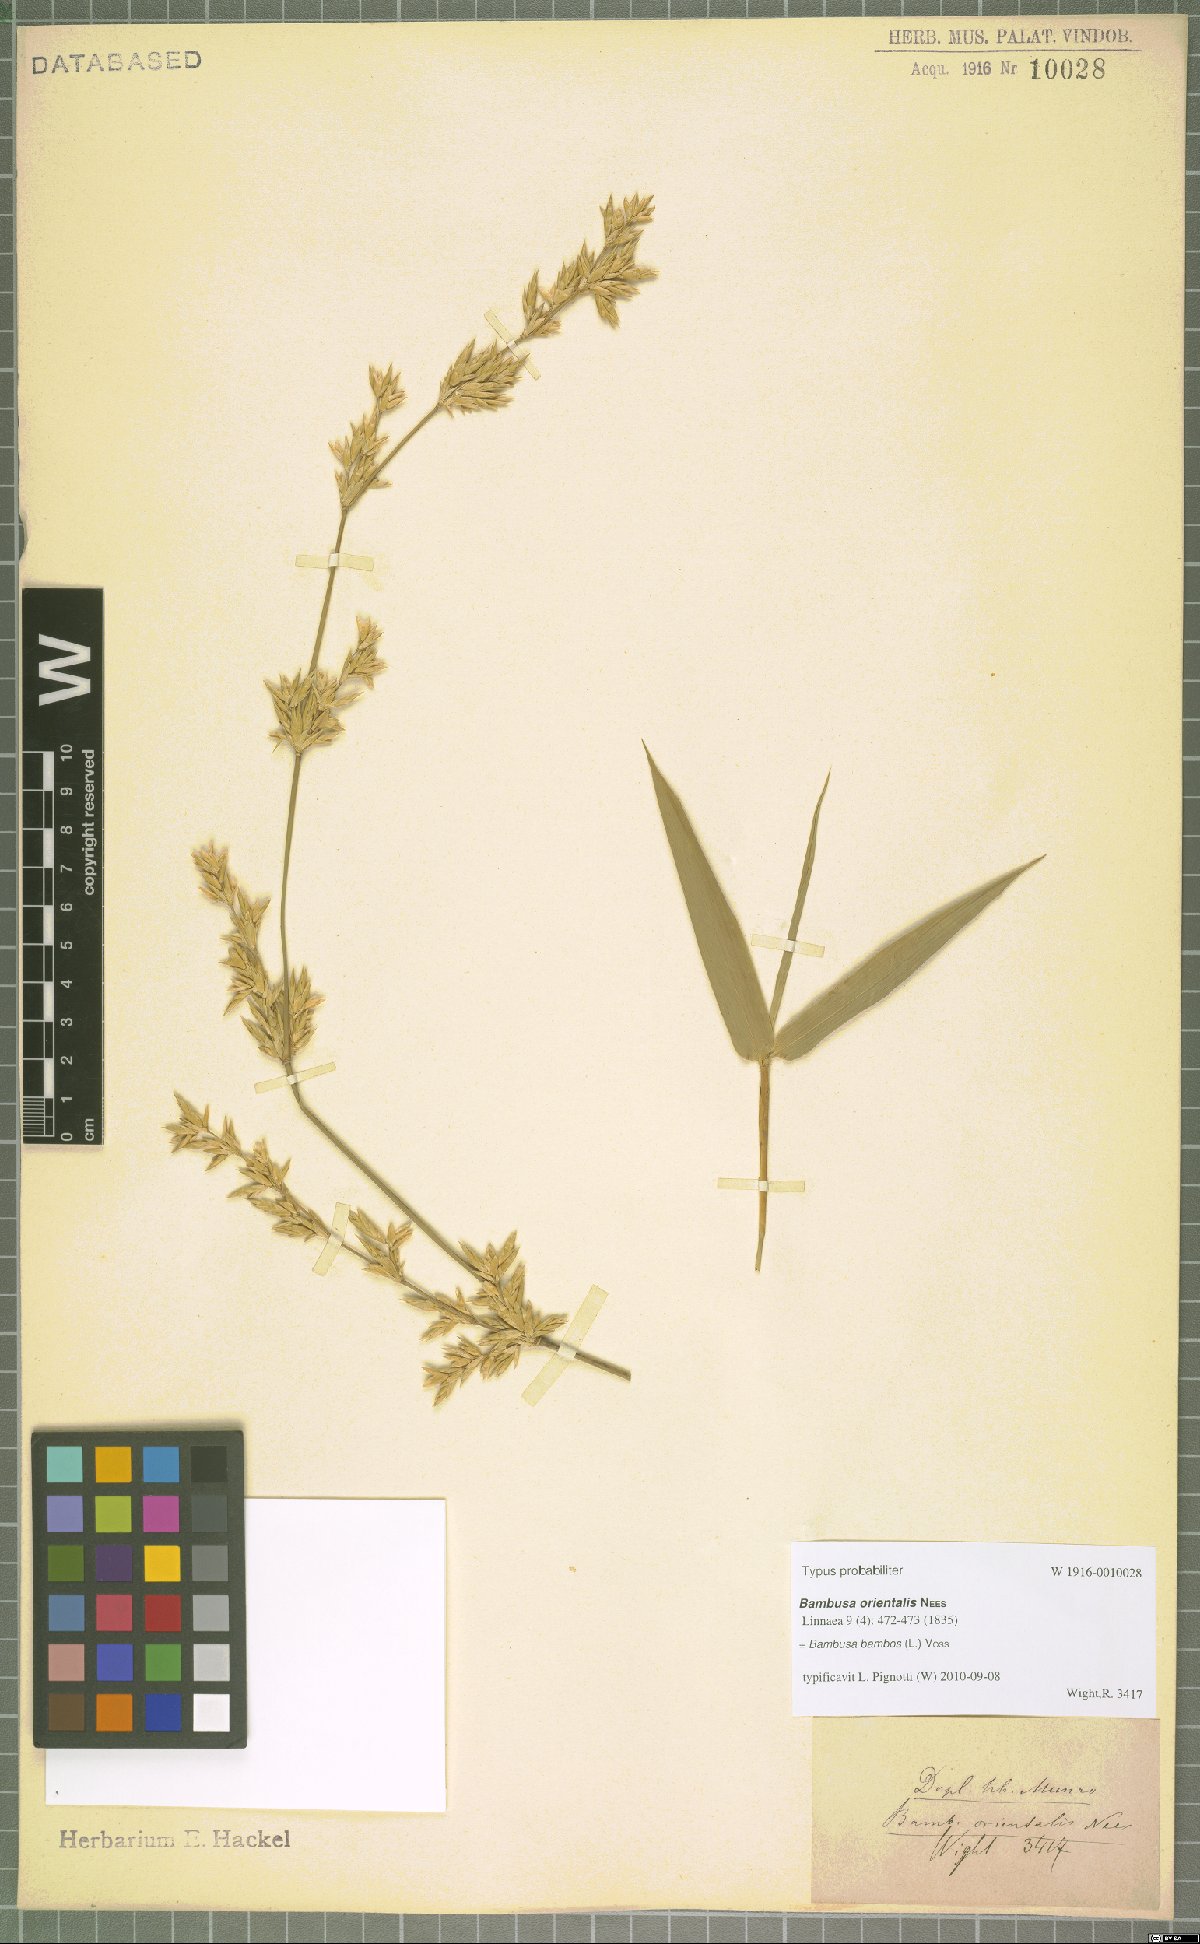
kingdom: Plantae
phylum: Tracheophyta
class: Liliopsida
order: Poales
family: Poaceae
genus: Bambusa
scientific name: Bambusa bambos
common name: Indian thorny bamboo
